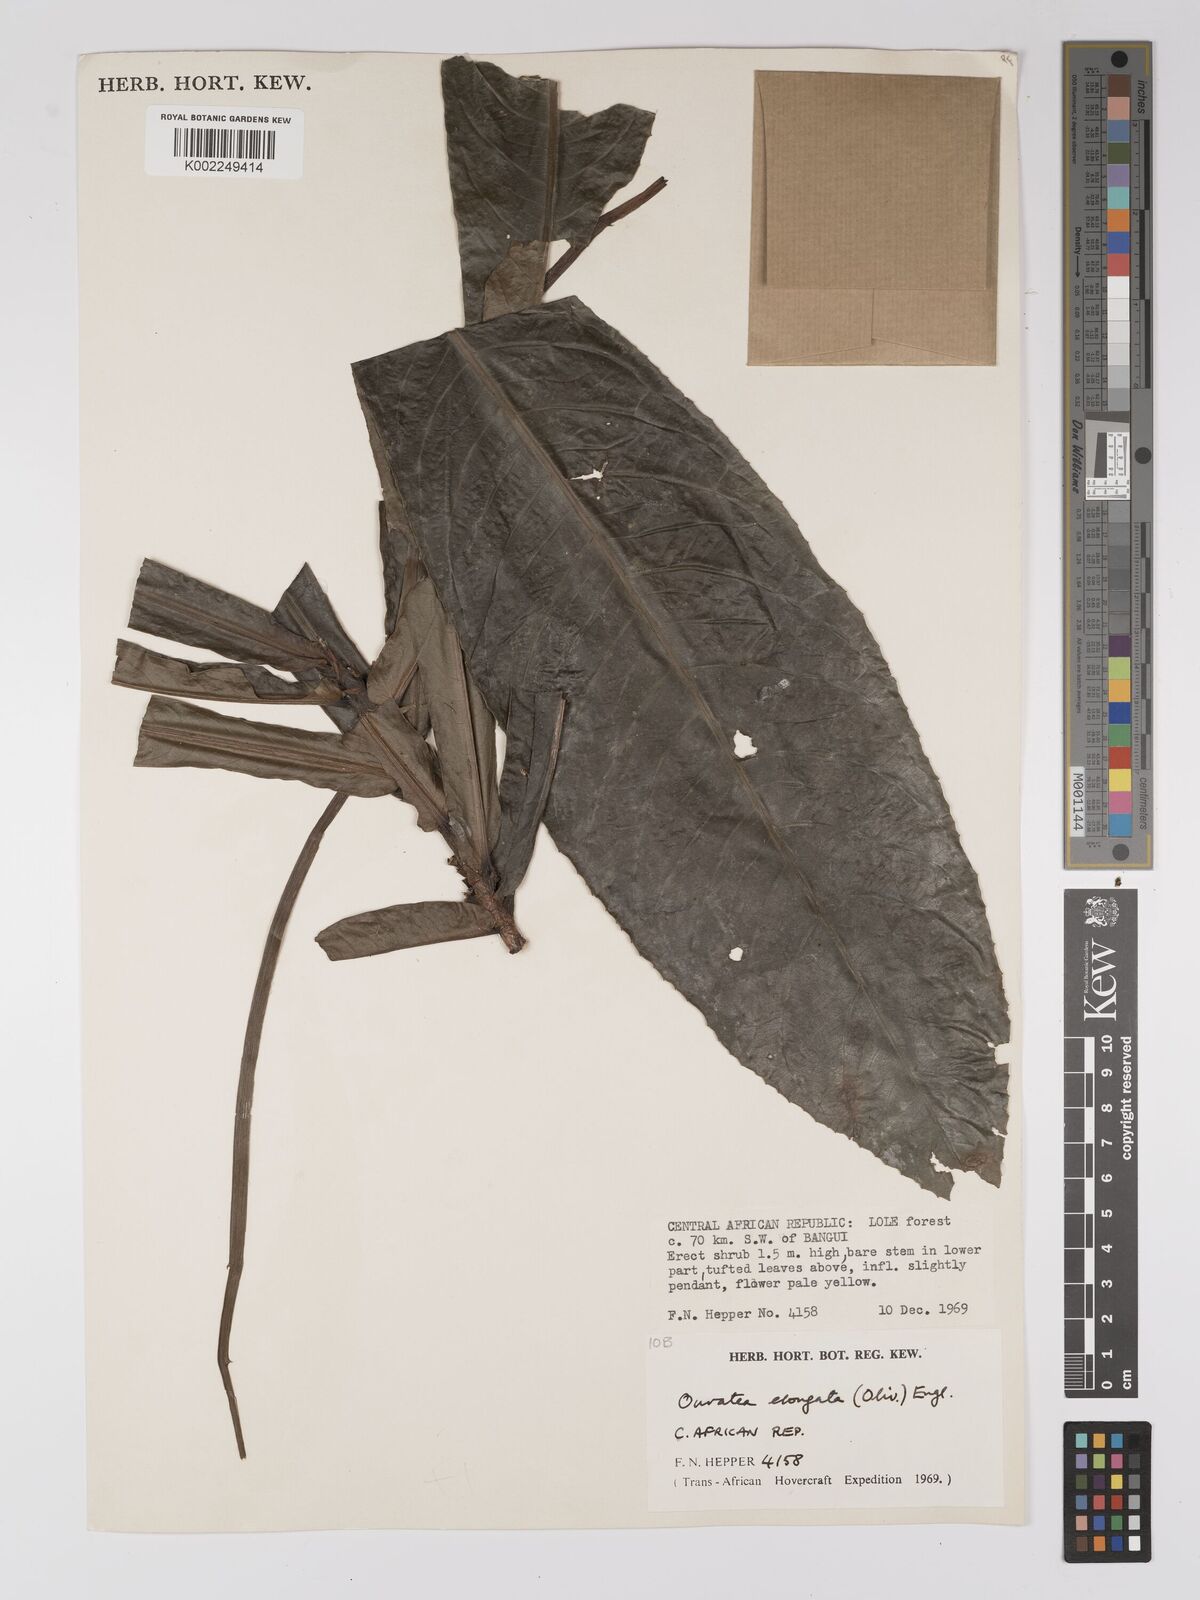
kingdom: Plantae
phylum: Tracheophyta
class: Magnoliopsida
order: Malpighiales
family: Ochnaceae
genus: Gomphia
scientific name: Gomphia elongata
